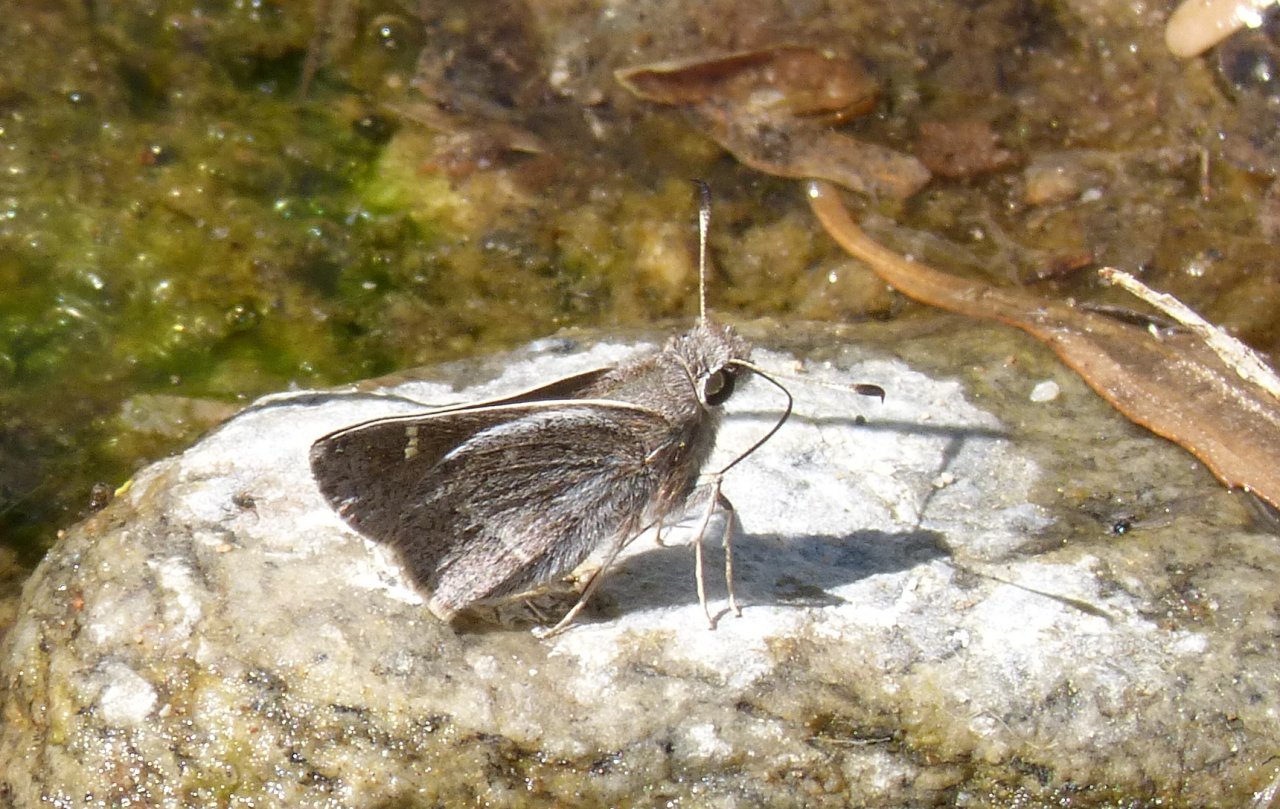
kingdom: Animalia
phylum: Arthropoda
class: Insecta
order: Lepidoptera
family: Hesperiidae
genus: Atrytonopsis
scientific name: Atrytonopsis pittacus
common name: White-barred Skipper
